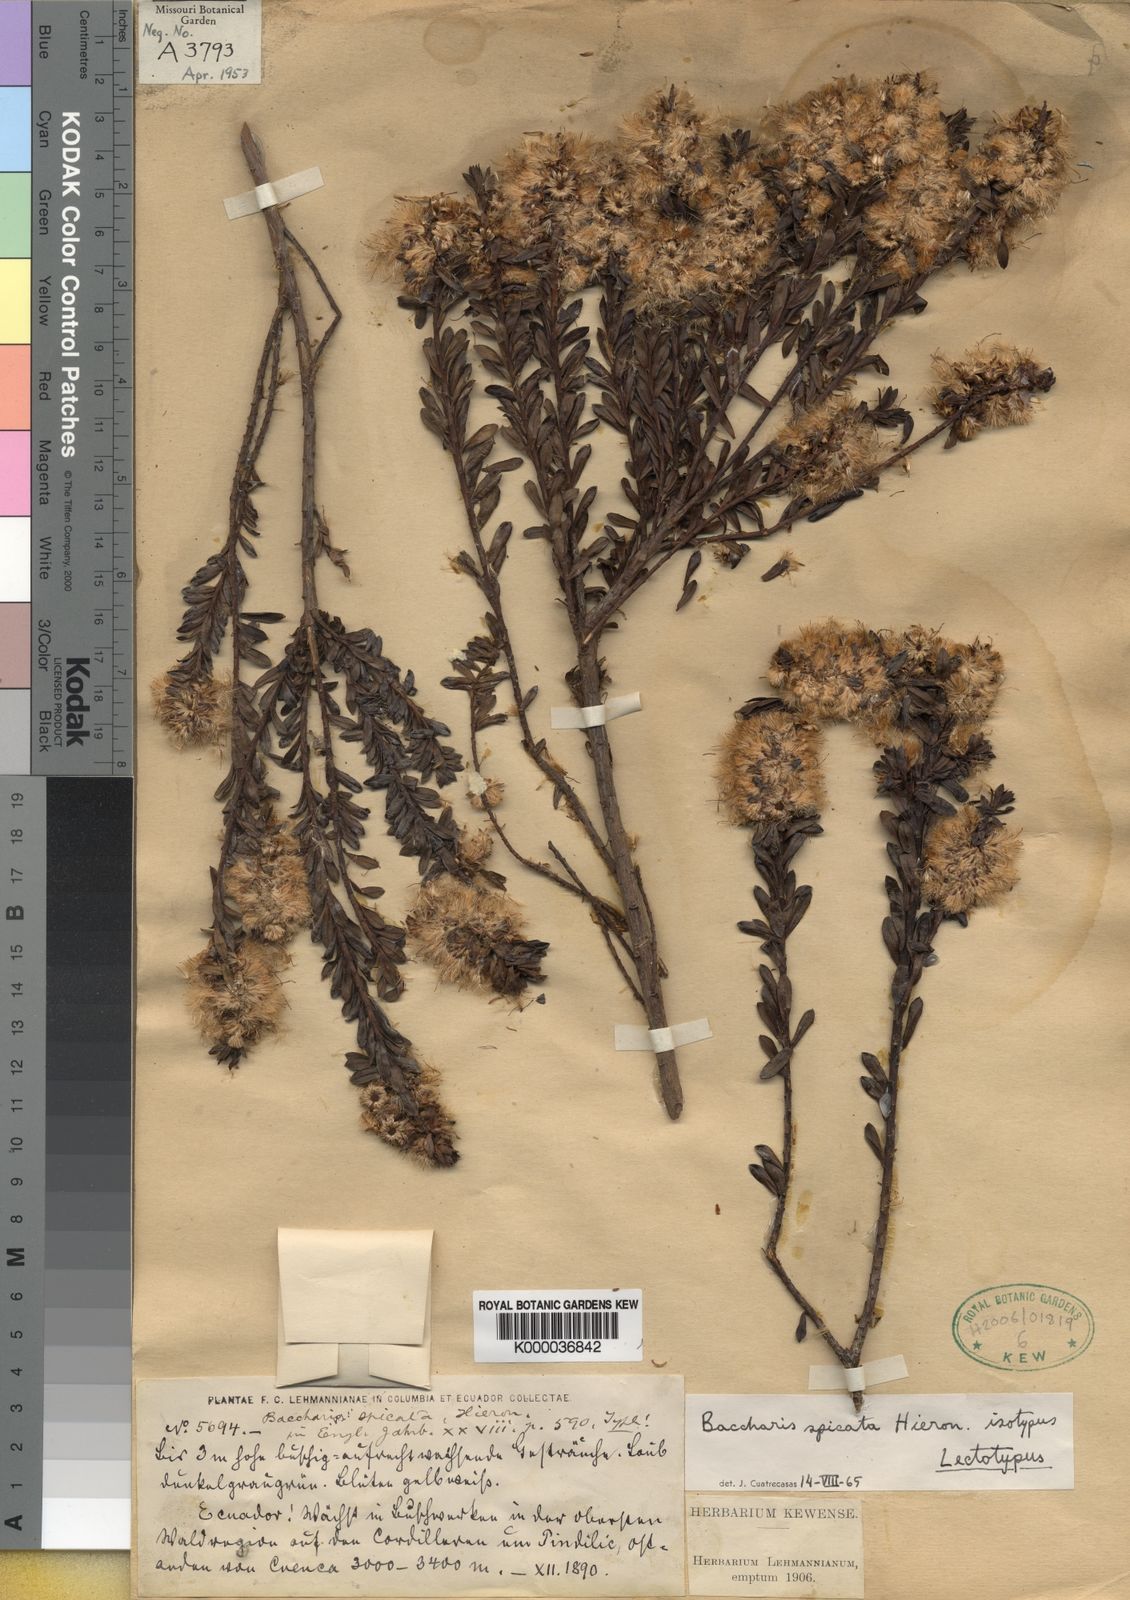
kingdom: Plantae
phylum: Tracheophyta
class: Magnoliopsida
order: Asterales
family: Asteraceae
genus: Baccharis
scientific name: Baccharis hieronymi
